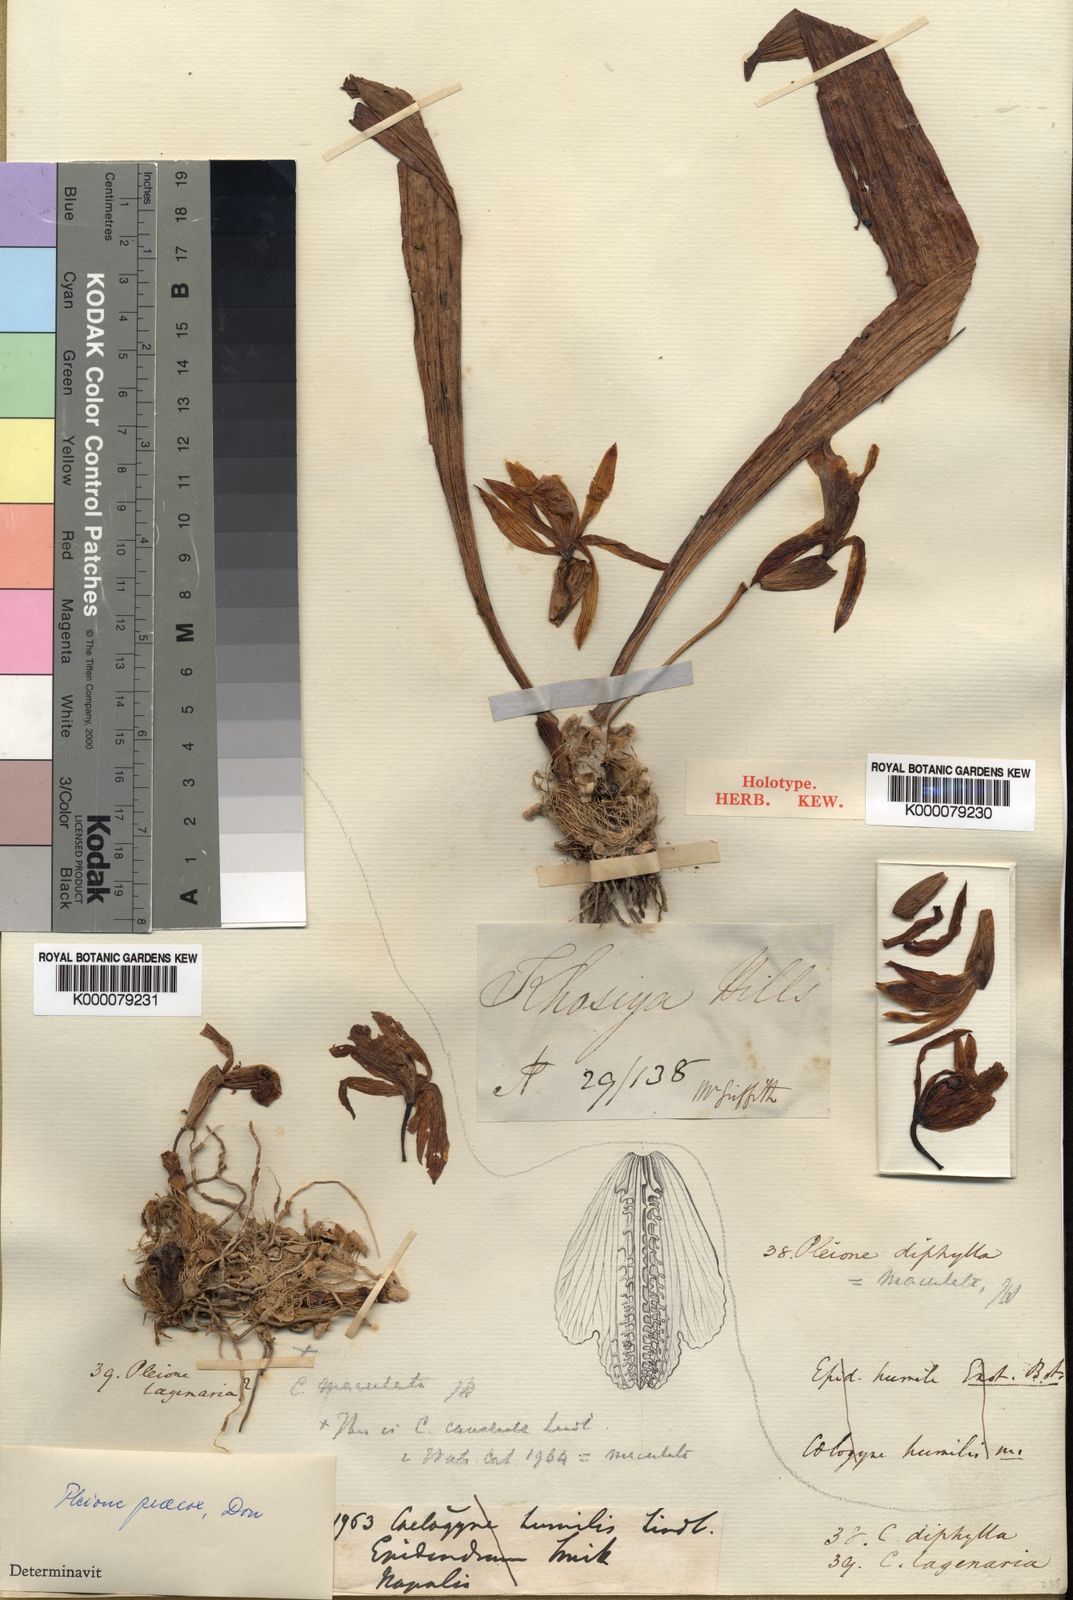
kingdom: Plantae
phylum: Tracheophyta
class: Liliopsida
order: Asparagales
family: Orchidaceae
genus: Pleione
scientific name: Pleione maculata
